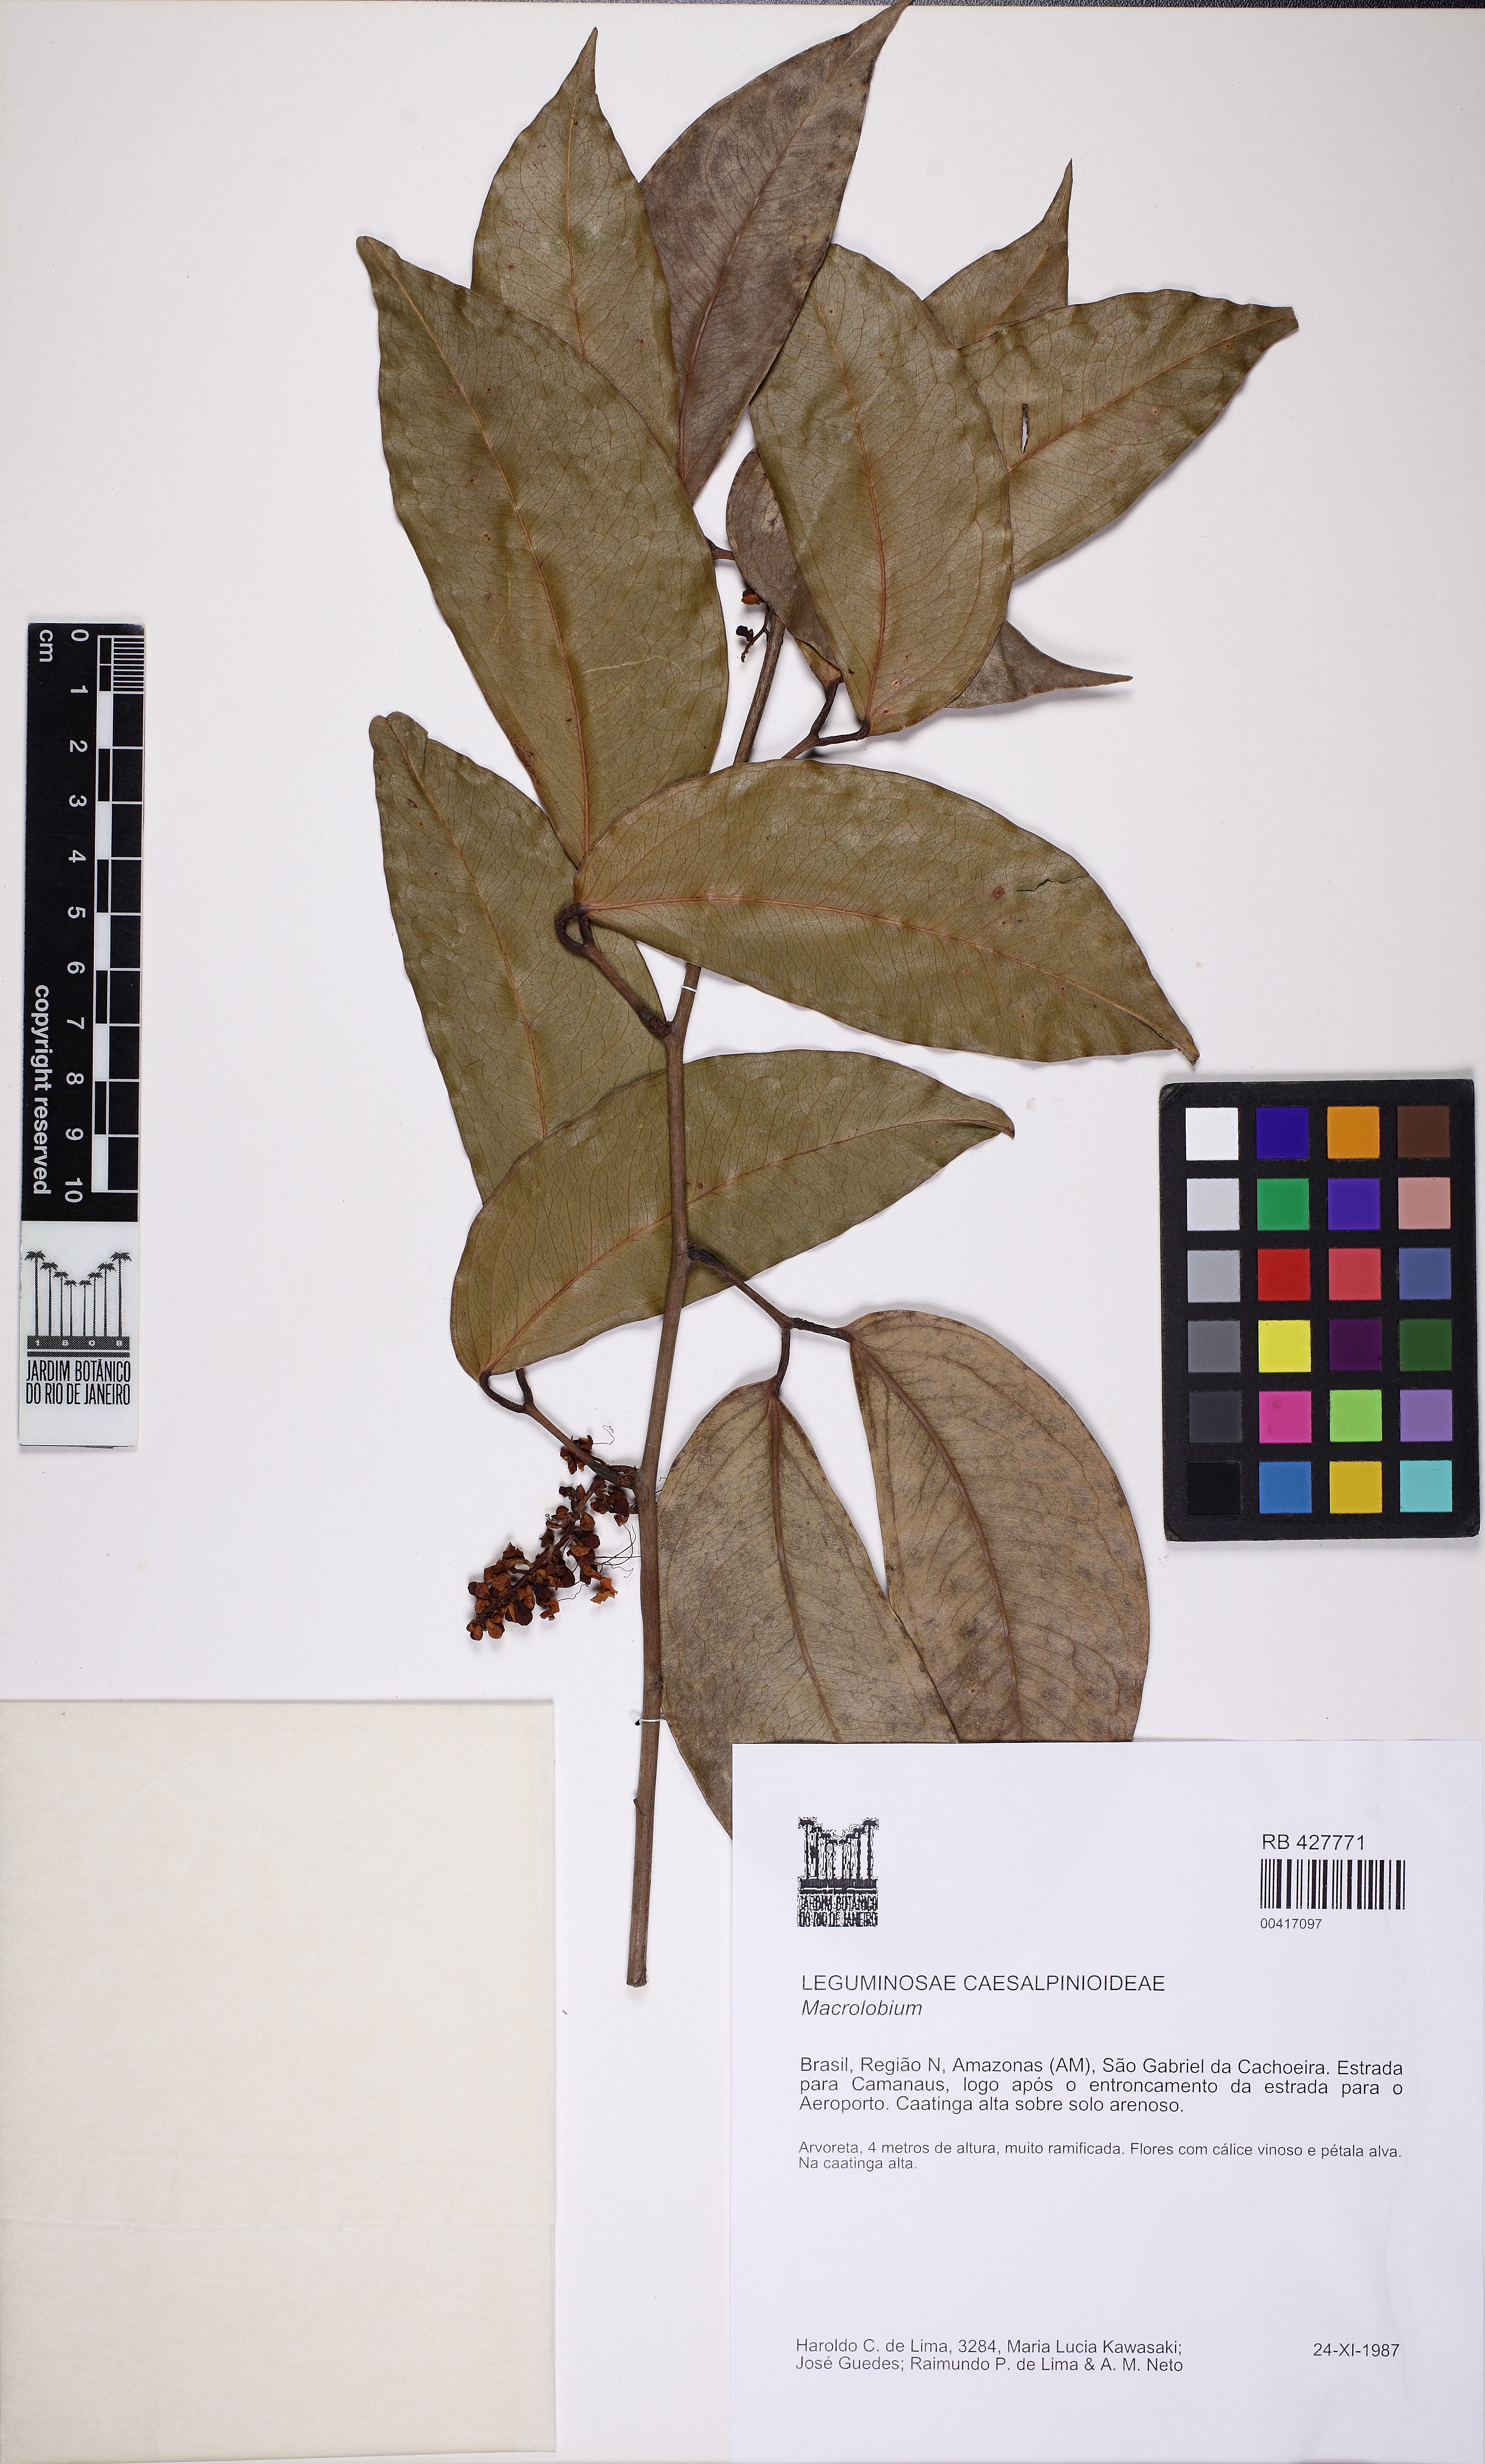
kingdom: Plantae
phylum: Tracheophyta
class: Magnoliopsida
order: Fabales
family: Fabaceae
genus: Macrolobium
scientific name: Macrolobium
